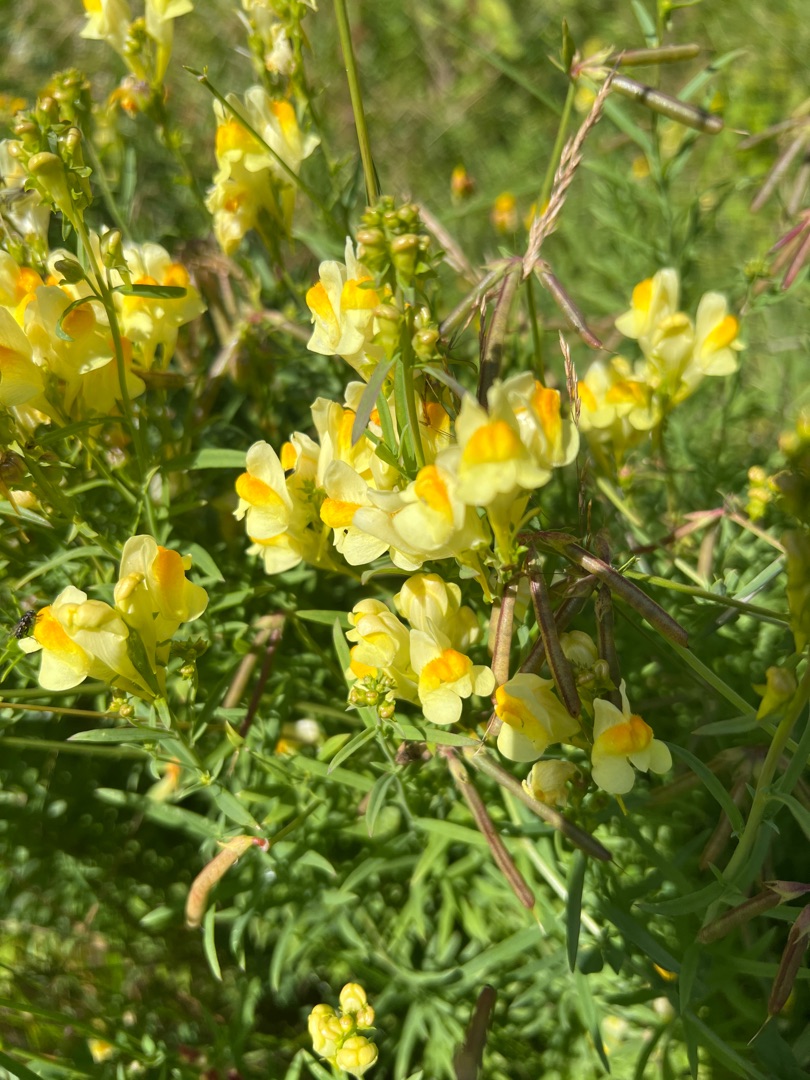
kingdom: Plantae
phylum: Tracheophyta
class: Magnoliopsida
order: Lamiales
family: Plantaginaceae
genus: Linaria
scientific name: Linaria vulgaris
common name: Almindelig torskemund
